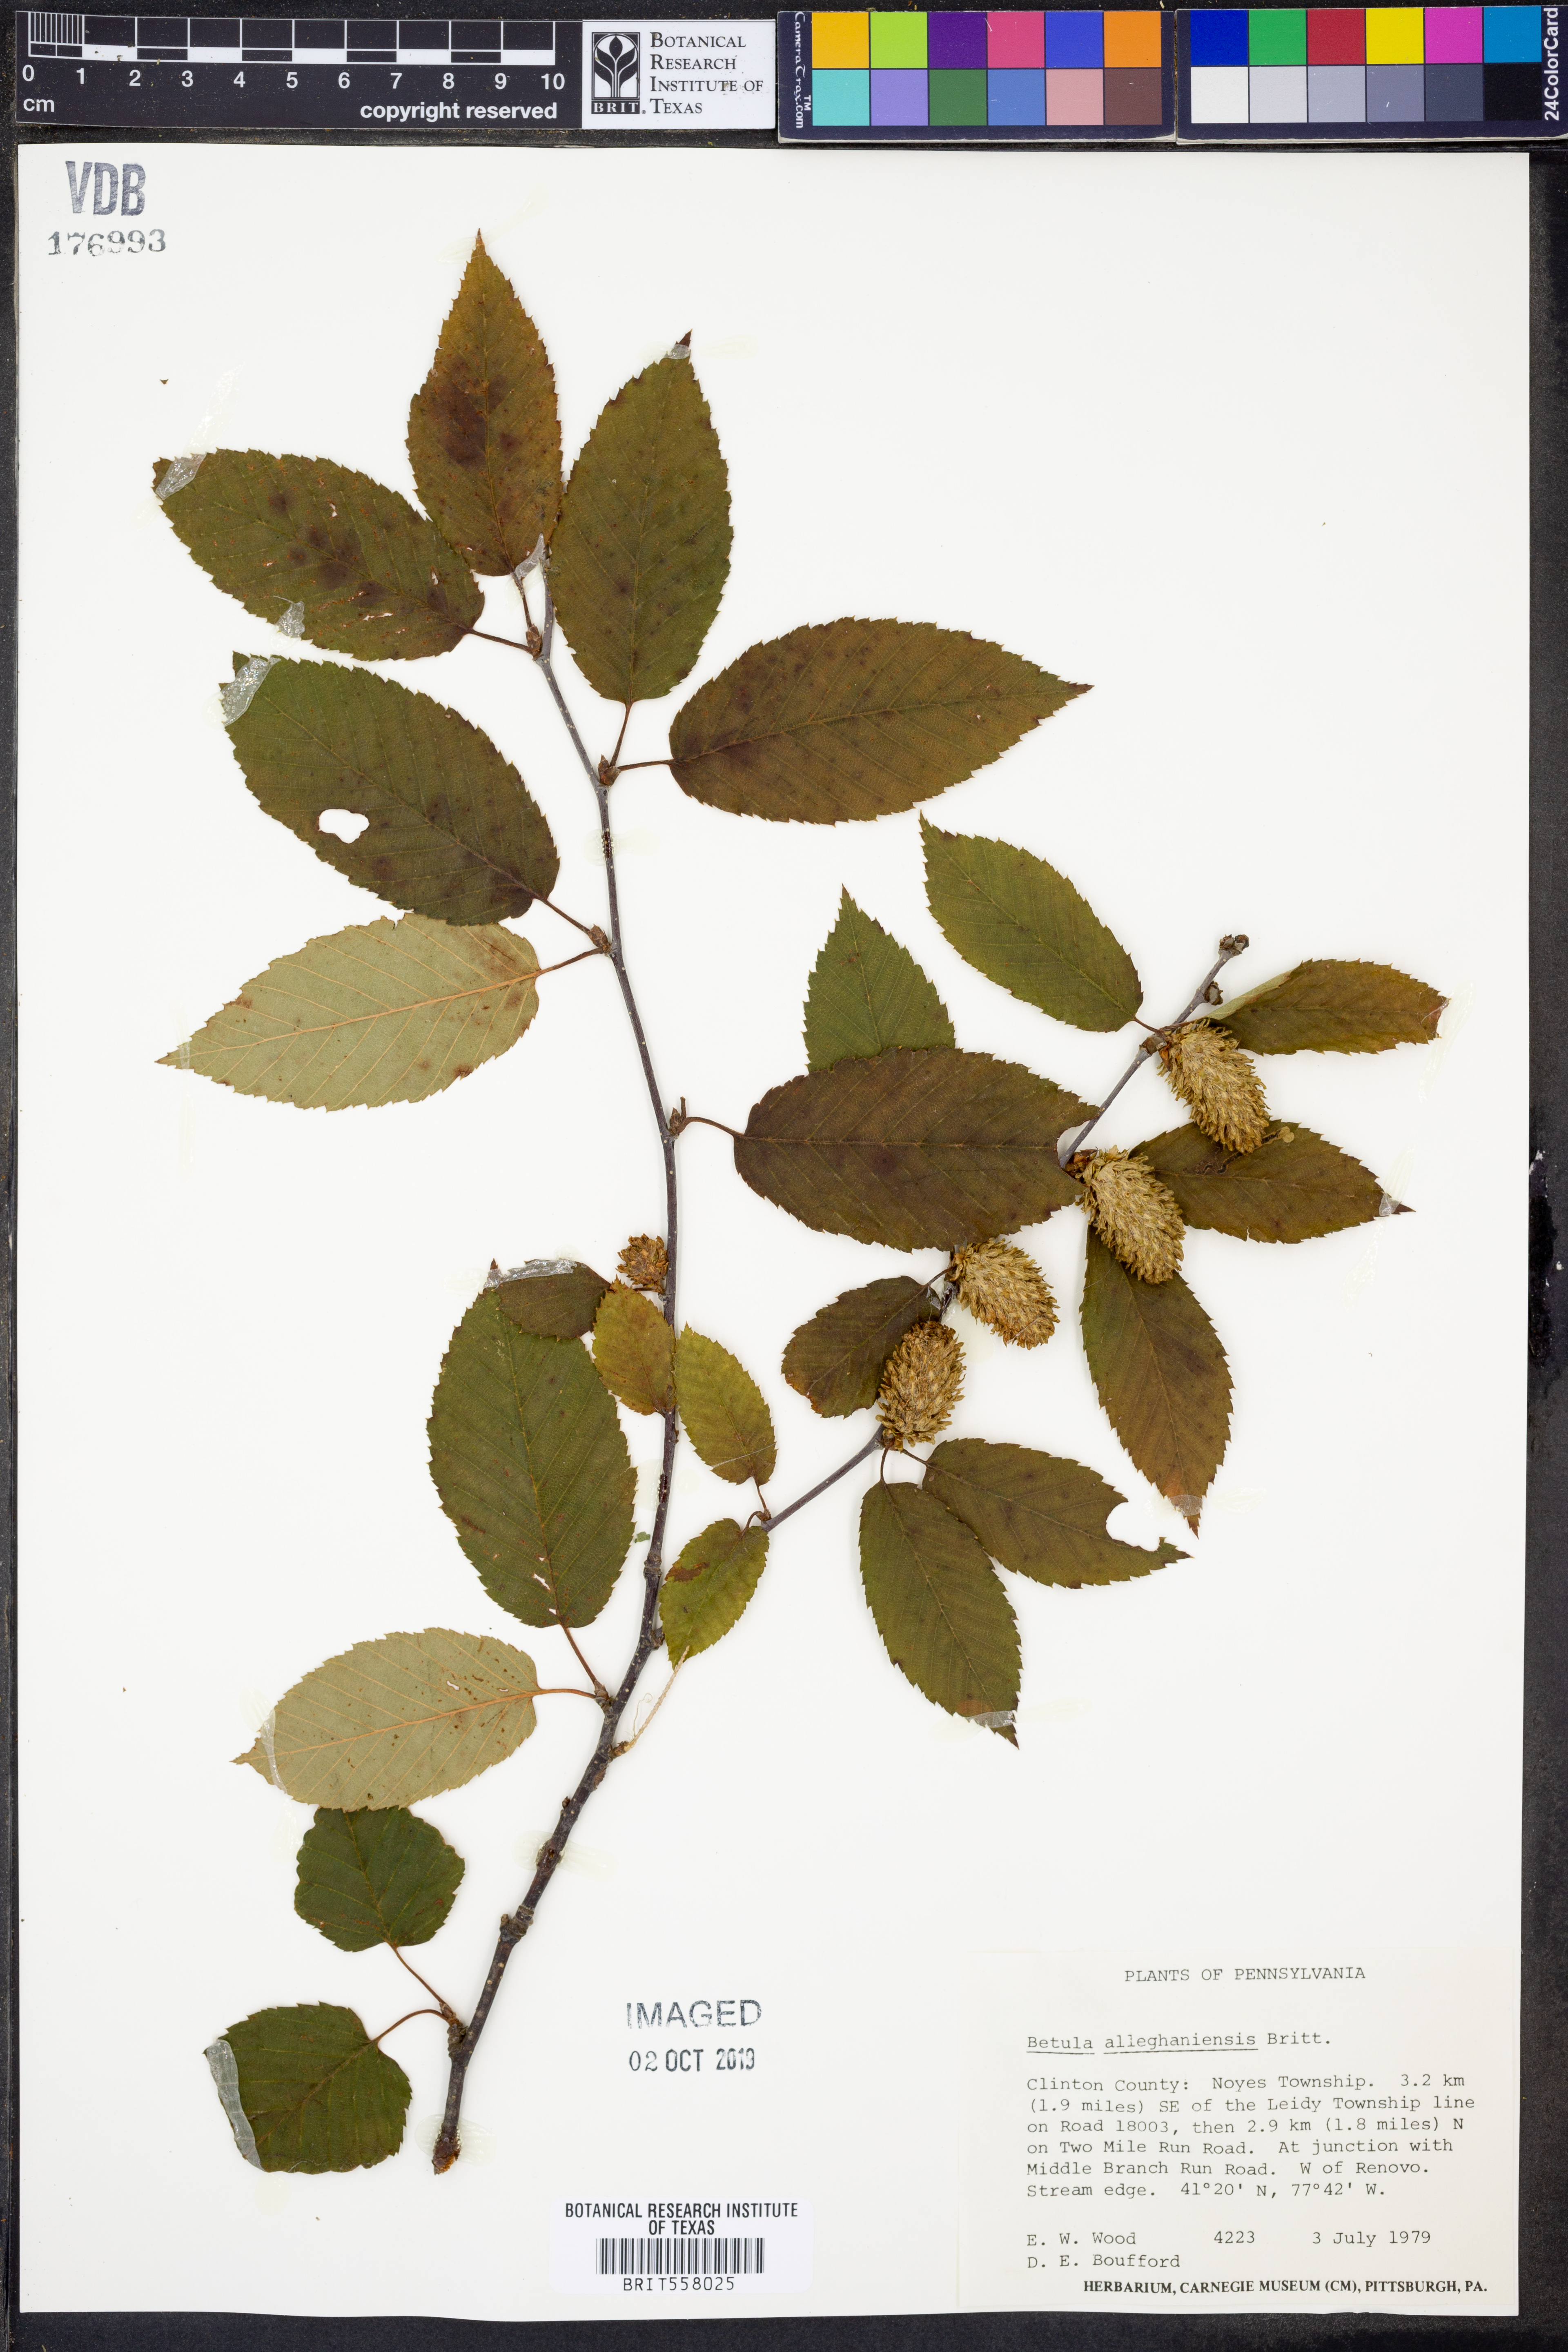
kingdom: Plantae
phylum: Tracheophyta
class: Magnoliopsida
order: Fagales
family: Betulaceae
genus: Betula
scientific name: Betula alleghaniensis
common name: Yellow birch
